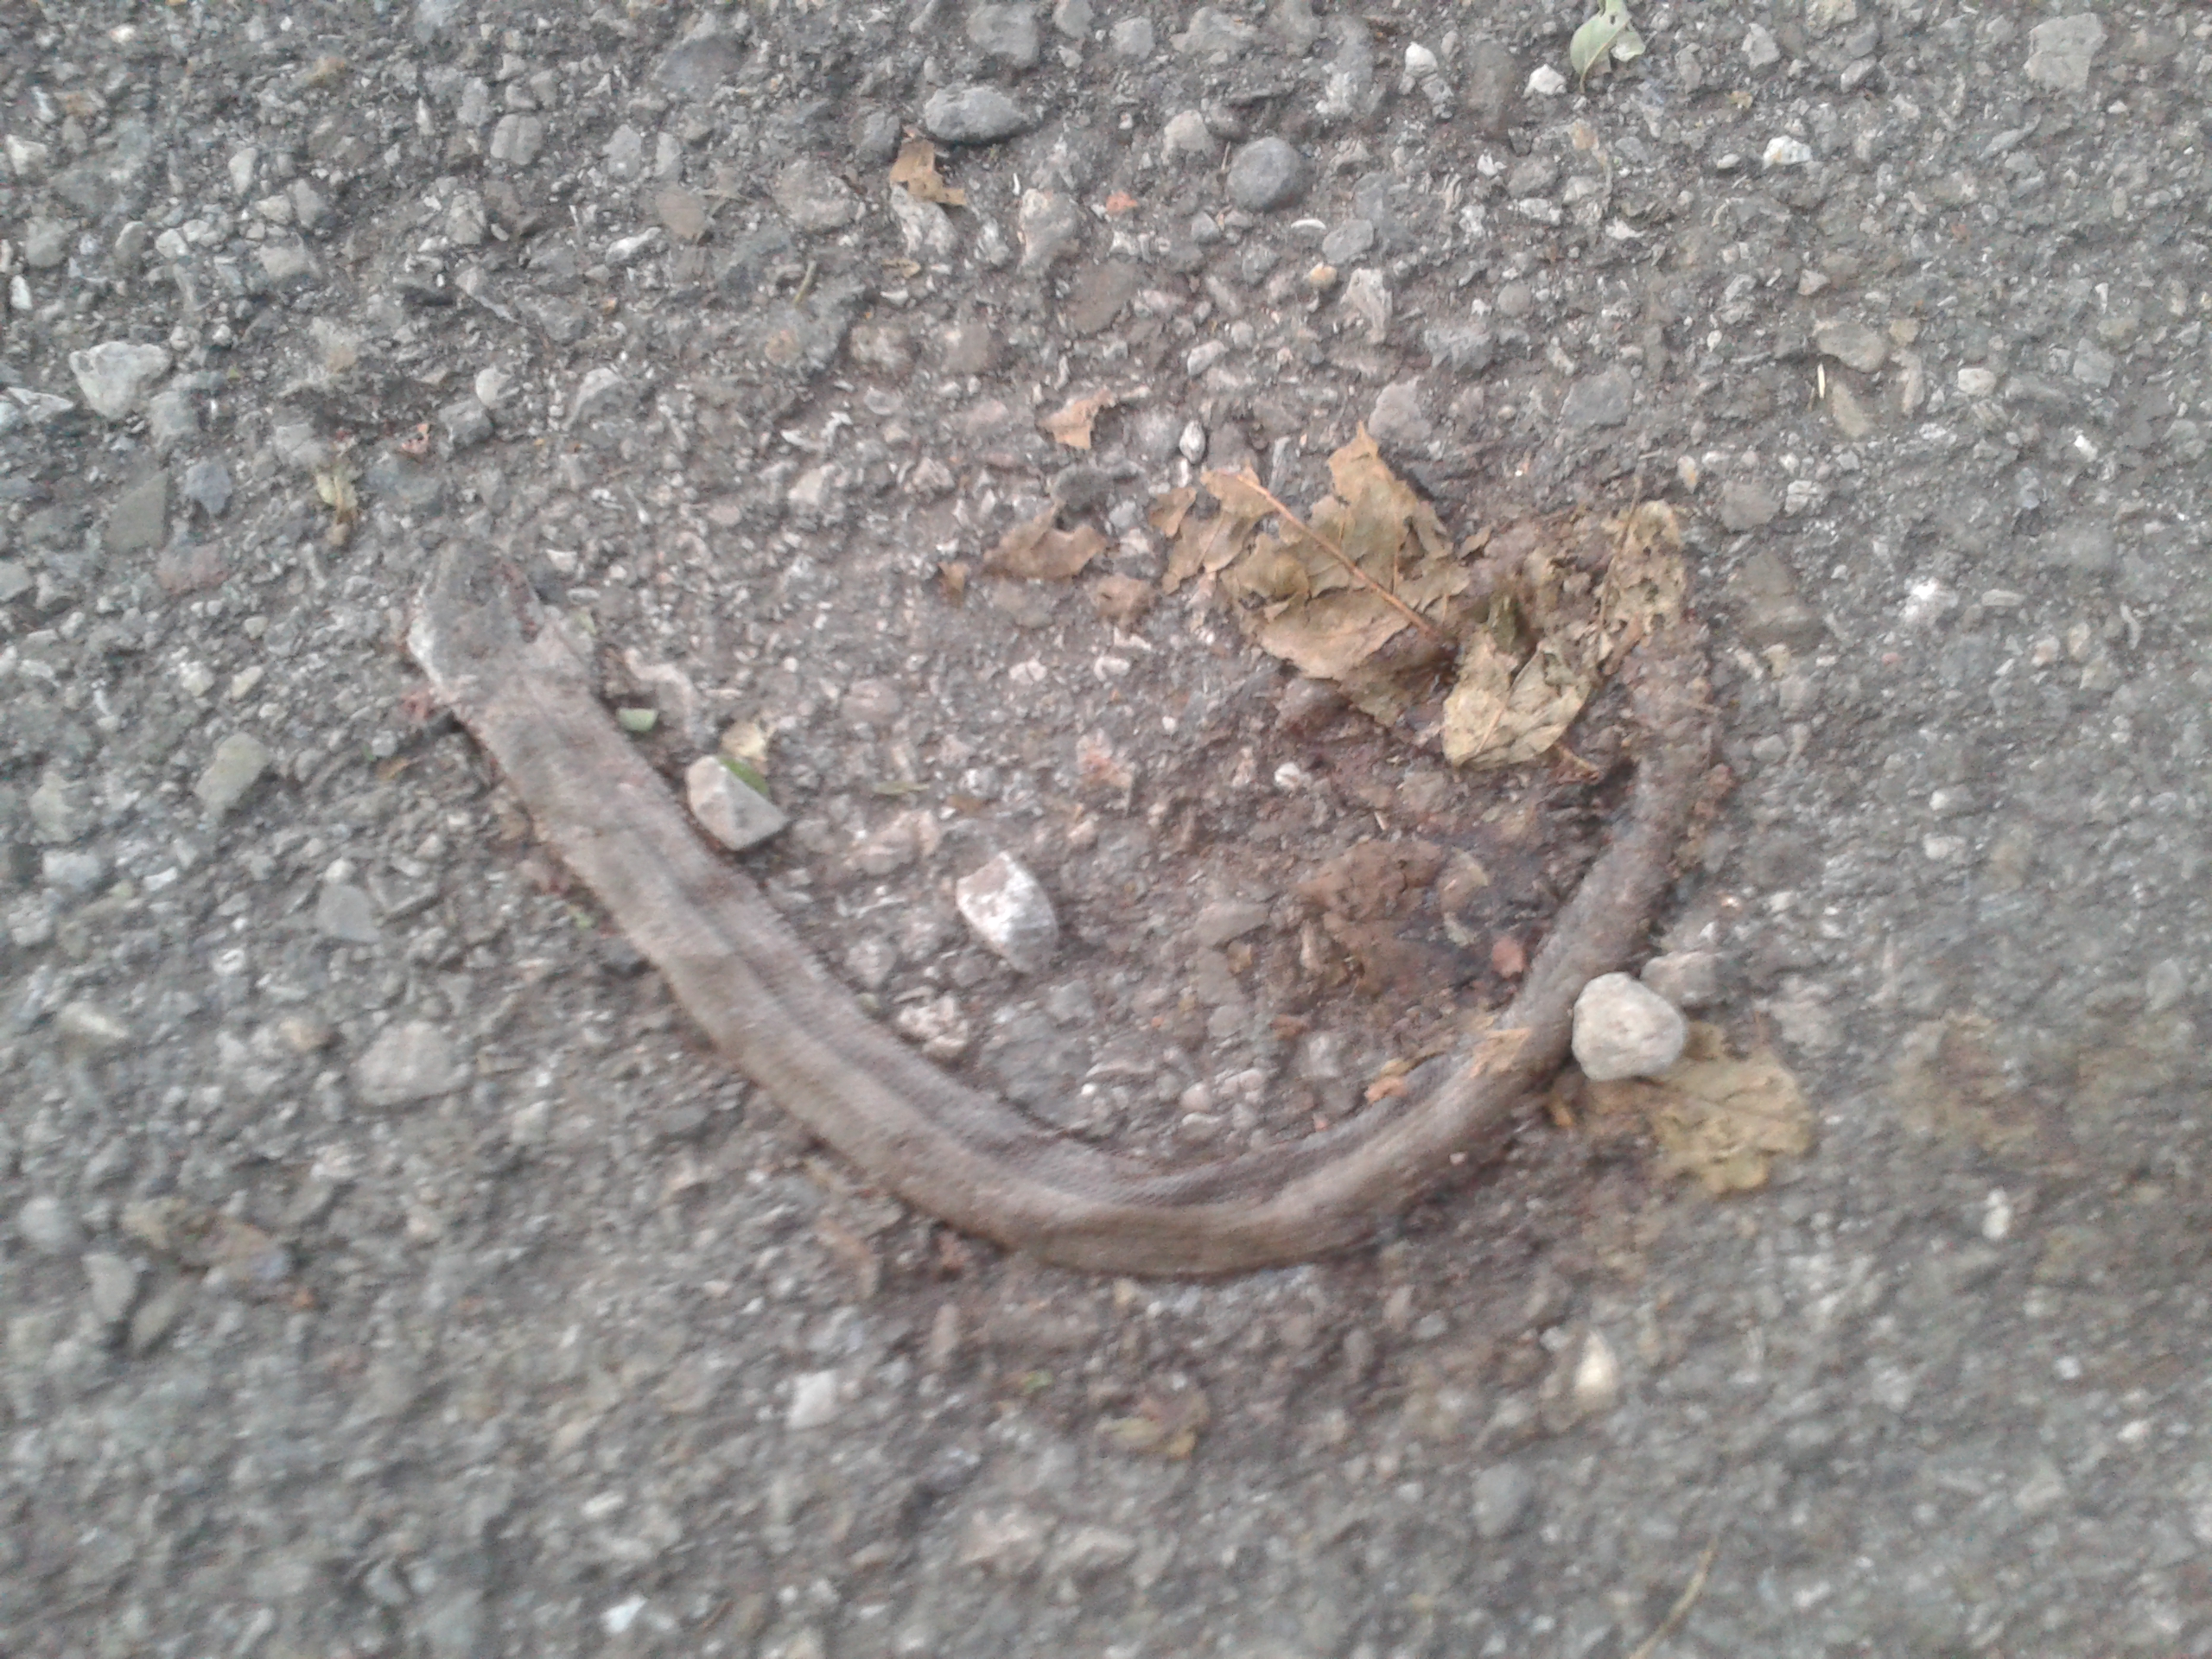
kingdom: Animalia
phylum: Chordata
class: Squamata
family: Anguidae
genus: Anguis
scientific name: Anguis fragilis
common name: Slow worm
